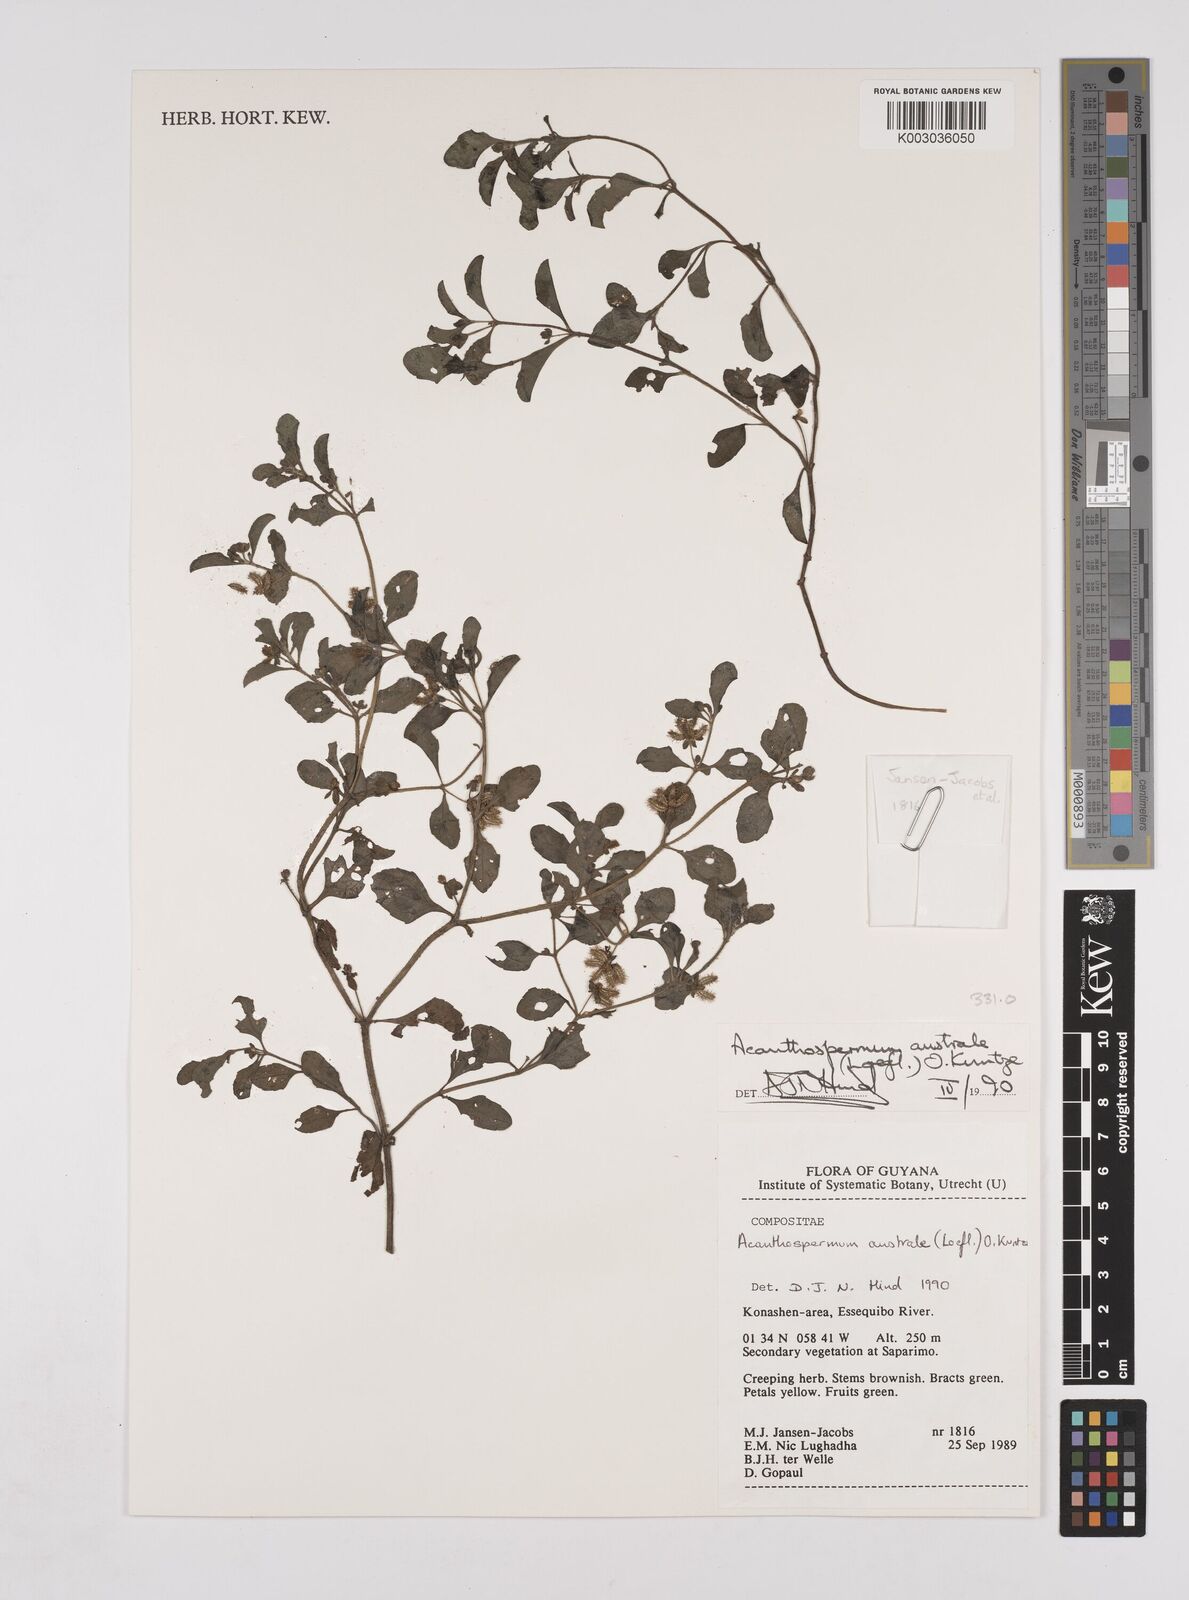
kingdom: Plantae
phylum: Tracheophyta
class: Magnoliopsida
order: Asterales
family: Asteraceae
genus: Acanthospermum
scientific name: Acanthospermum australe
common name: Paraguayan starbur
